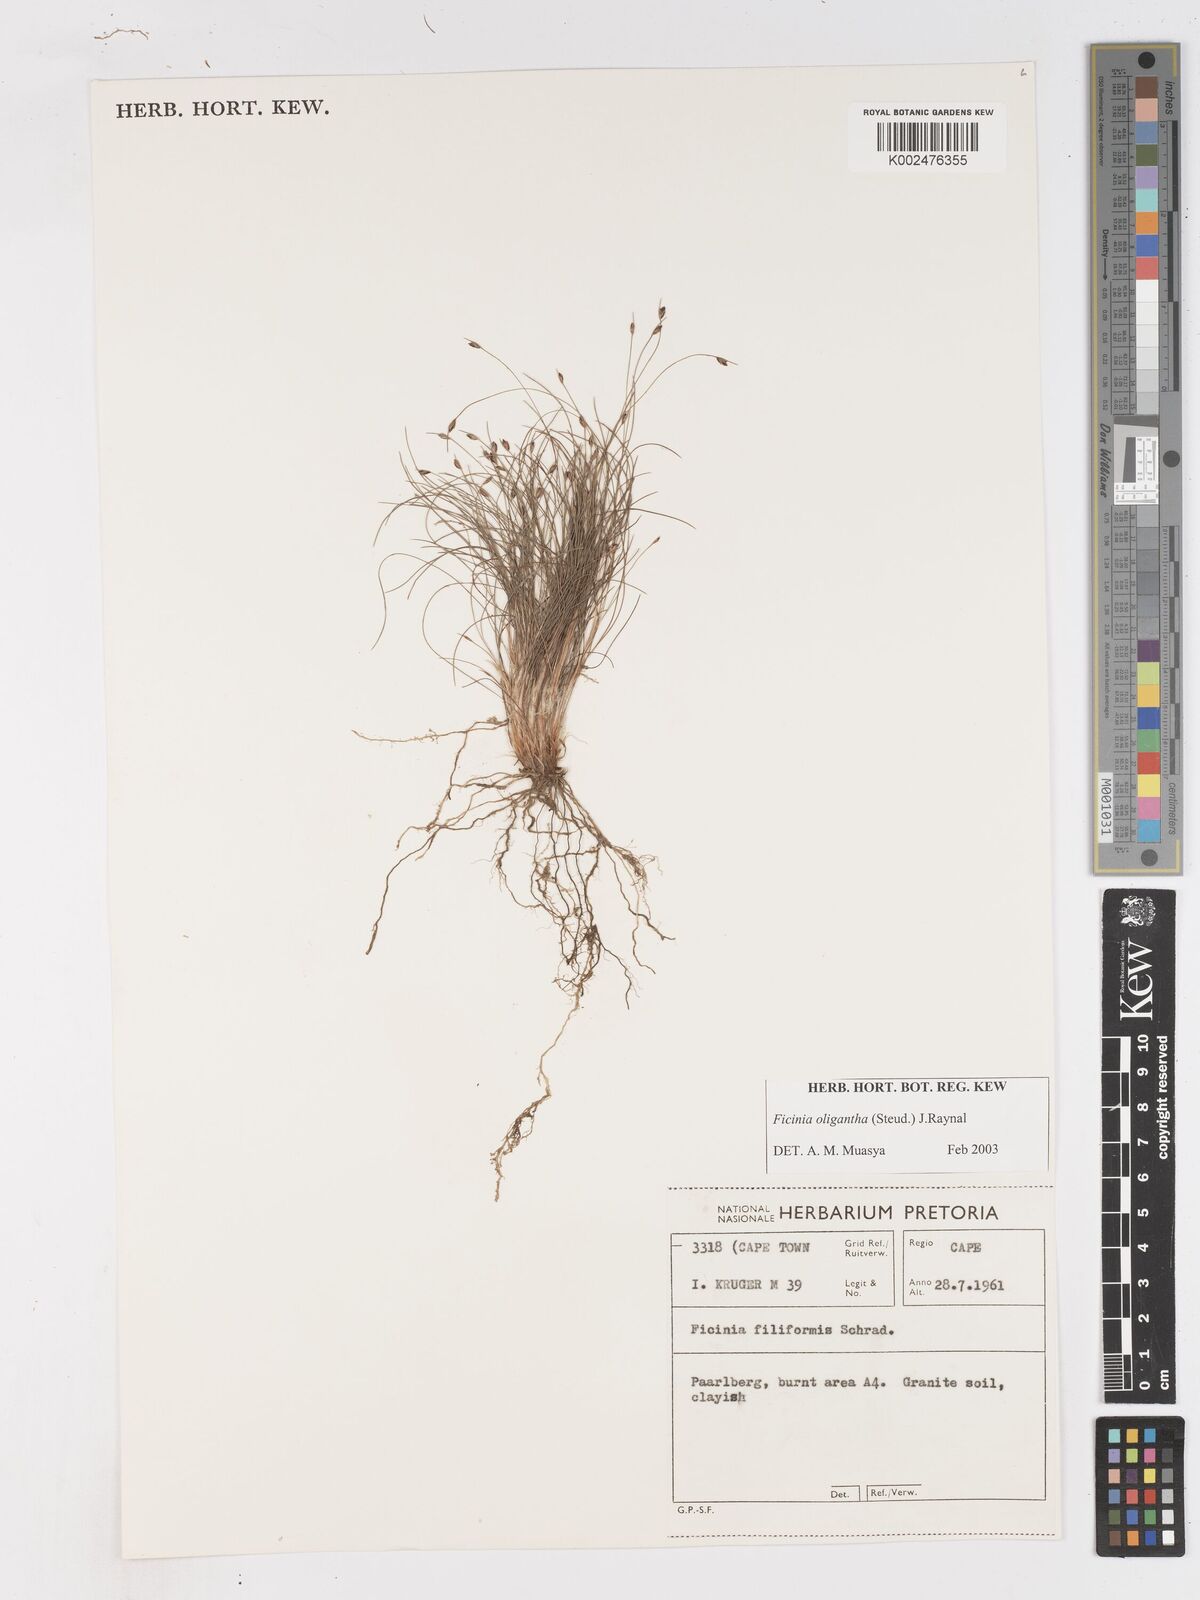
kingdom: Plantae
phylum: Tracheophyta
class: Liliopsida
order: Poales
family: Cyperaceae
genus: Ficinia
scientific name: Ficinia oligantha
